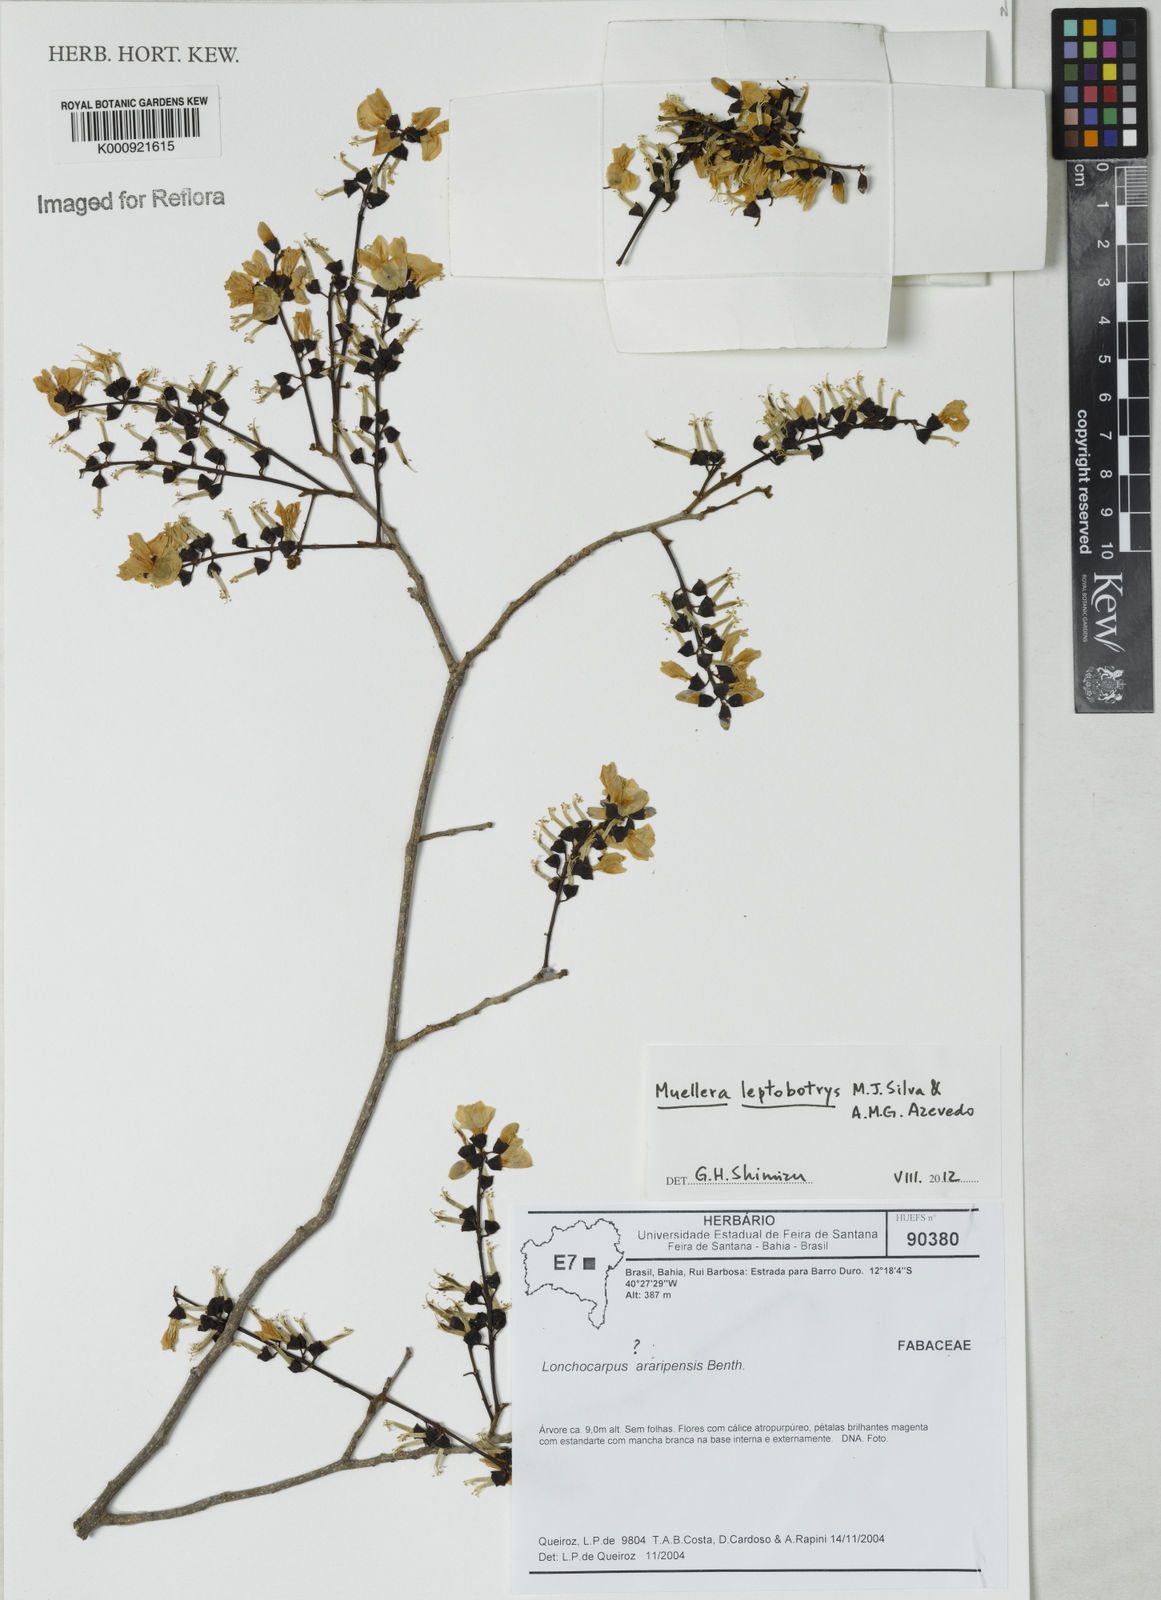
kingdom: Plantae
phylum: Tracheophyta
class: Magnoliopsida
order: Fabales
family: Fabaceae
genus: Muellera
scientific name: Muellera leptobotrys
